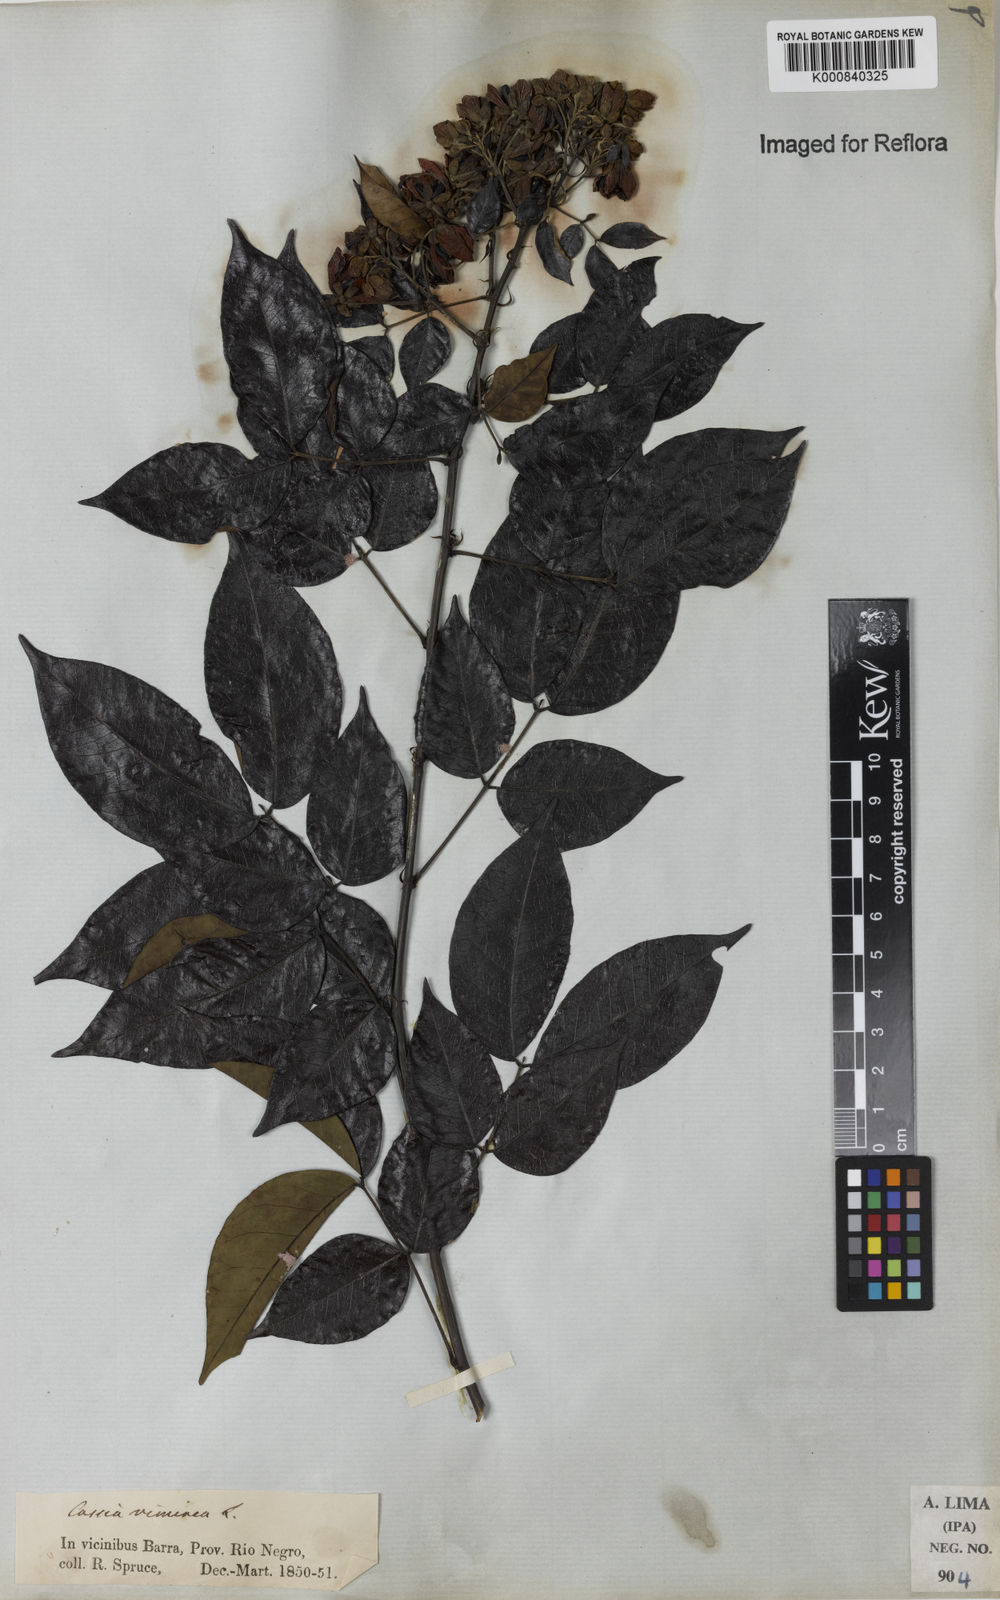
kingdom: Plantae
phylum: Tracheophyta
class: Magnoliopsida
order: Fabales
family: Fabaceae
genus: Senna
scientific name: Senna undulata
